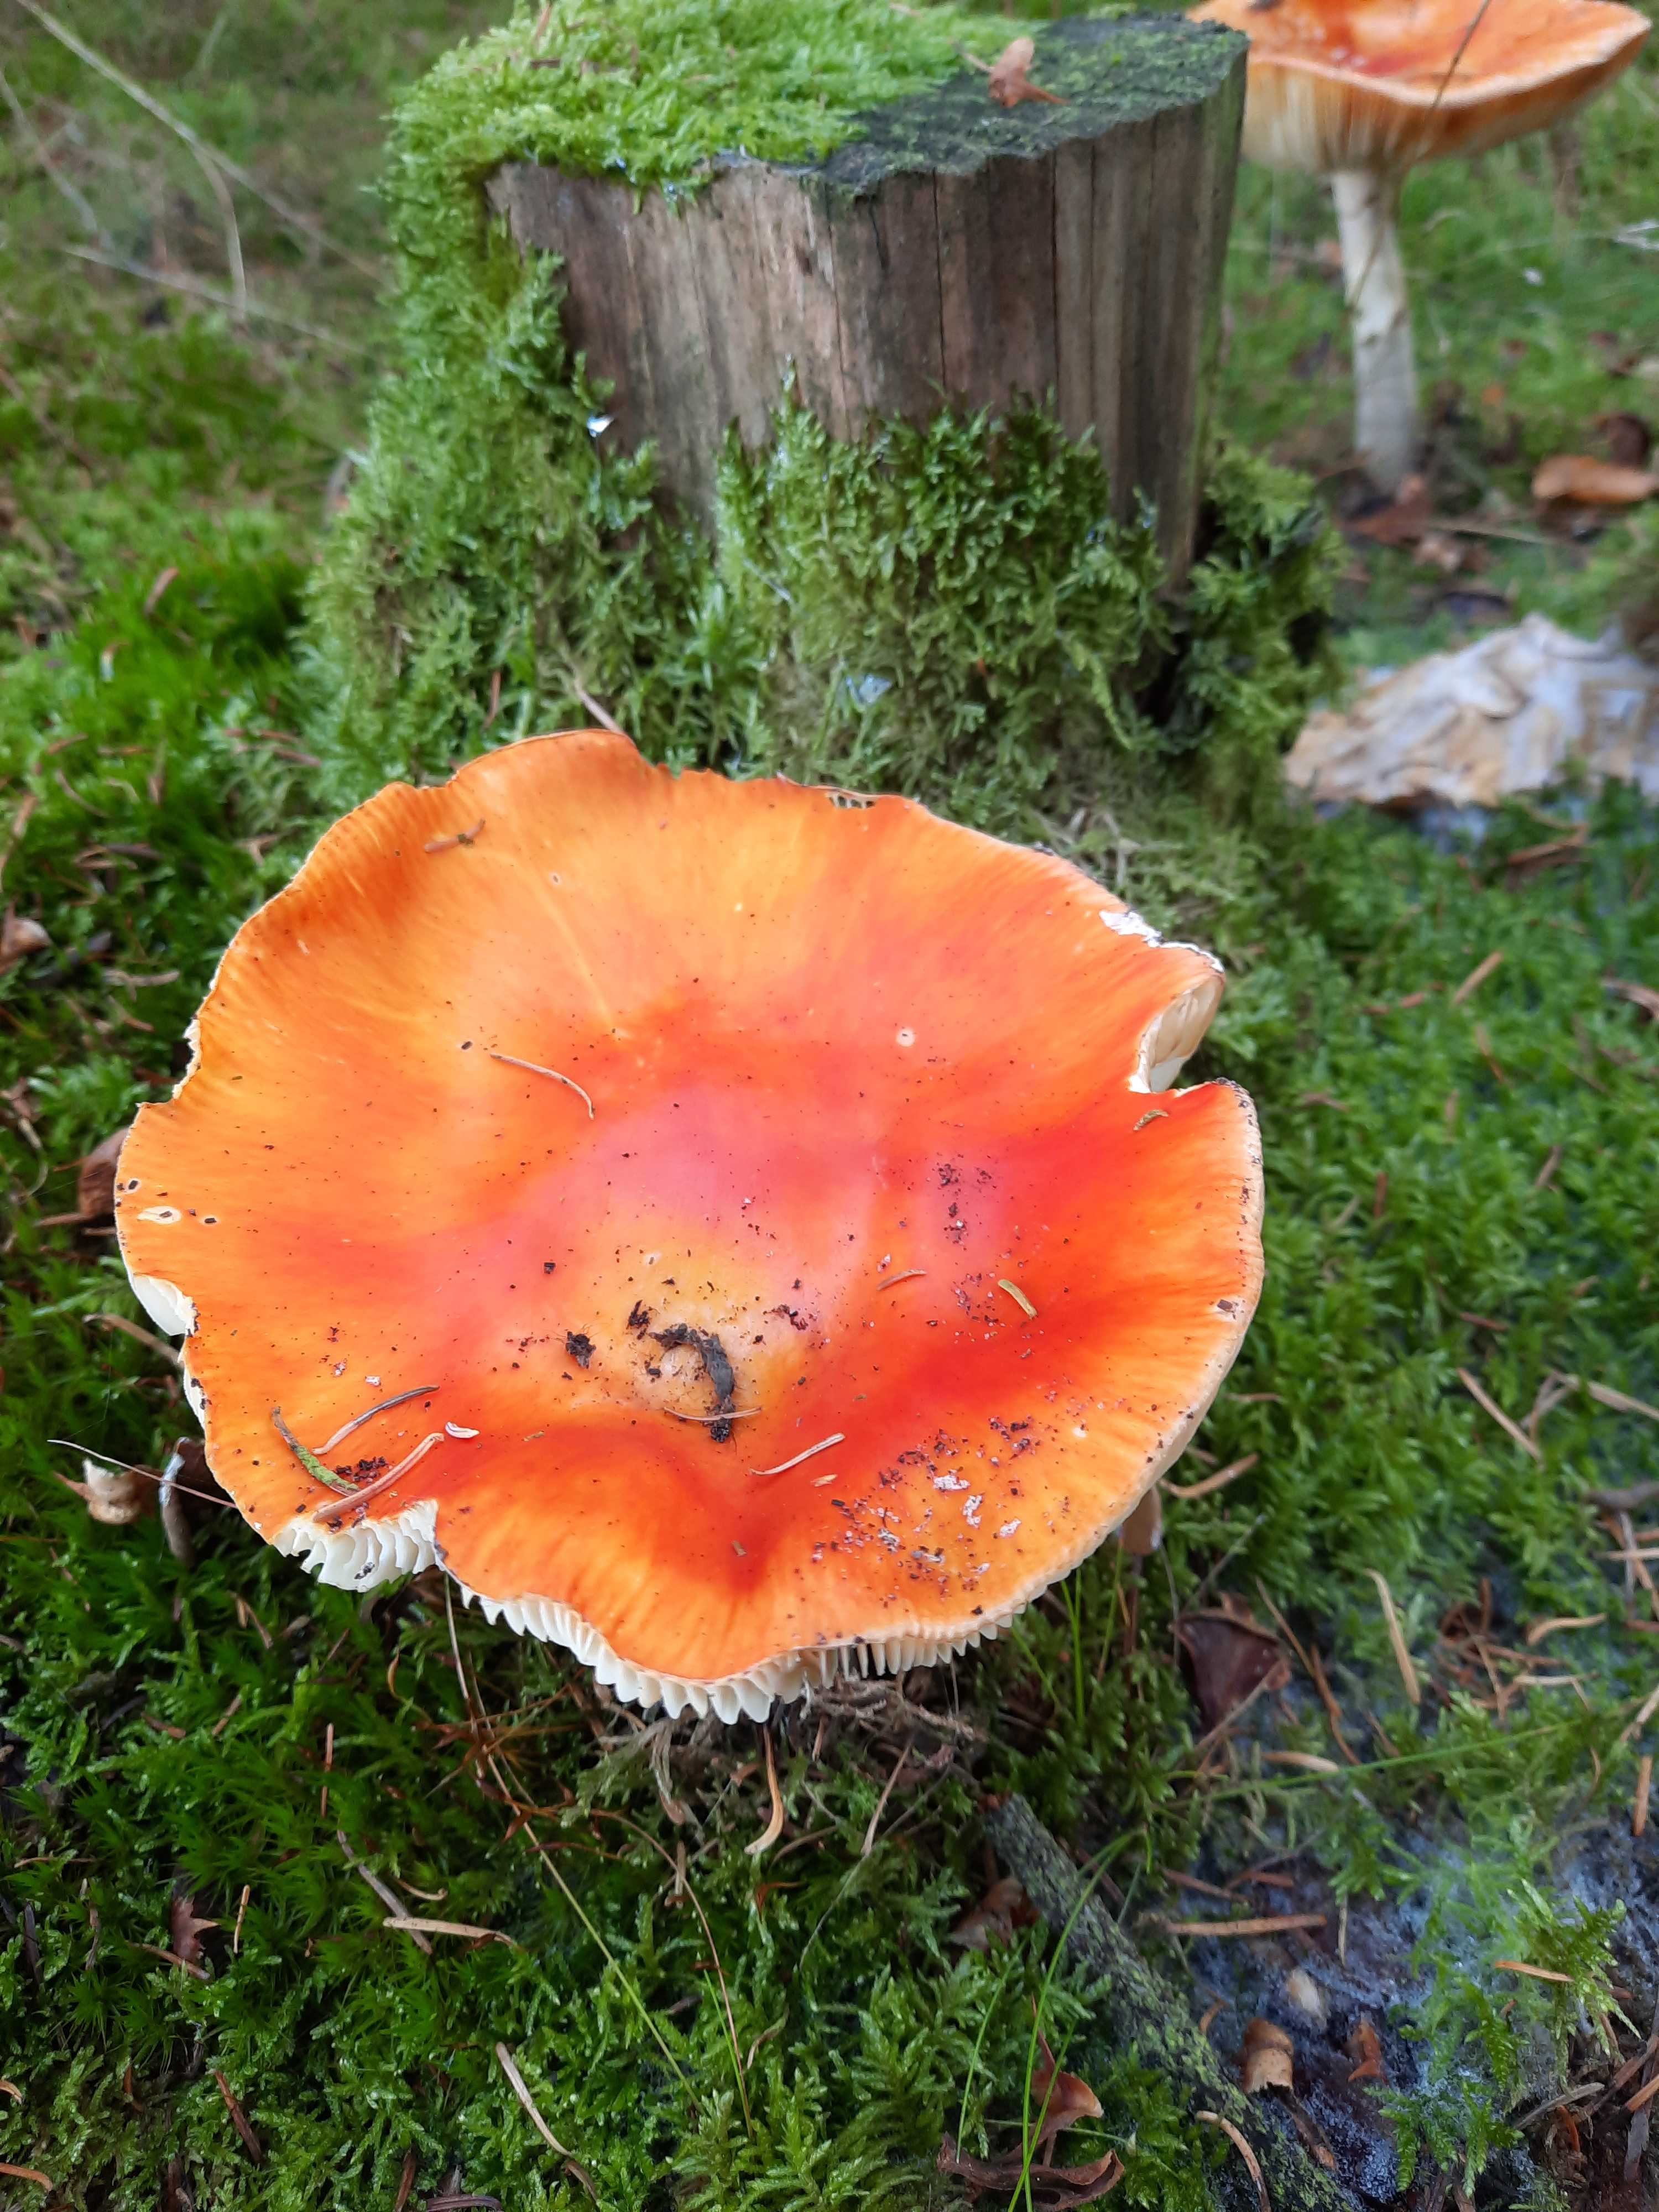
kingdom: Fungi
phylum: Basidiomycota
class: Agaricomycetes
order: Agaricales
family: Amanitaceae
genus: Amanita
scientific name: Amanita muscaria
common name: rød fluesvamp
